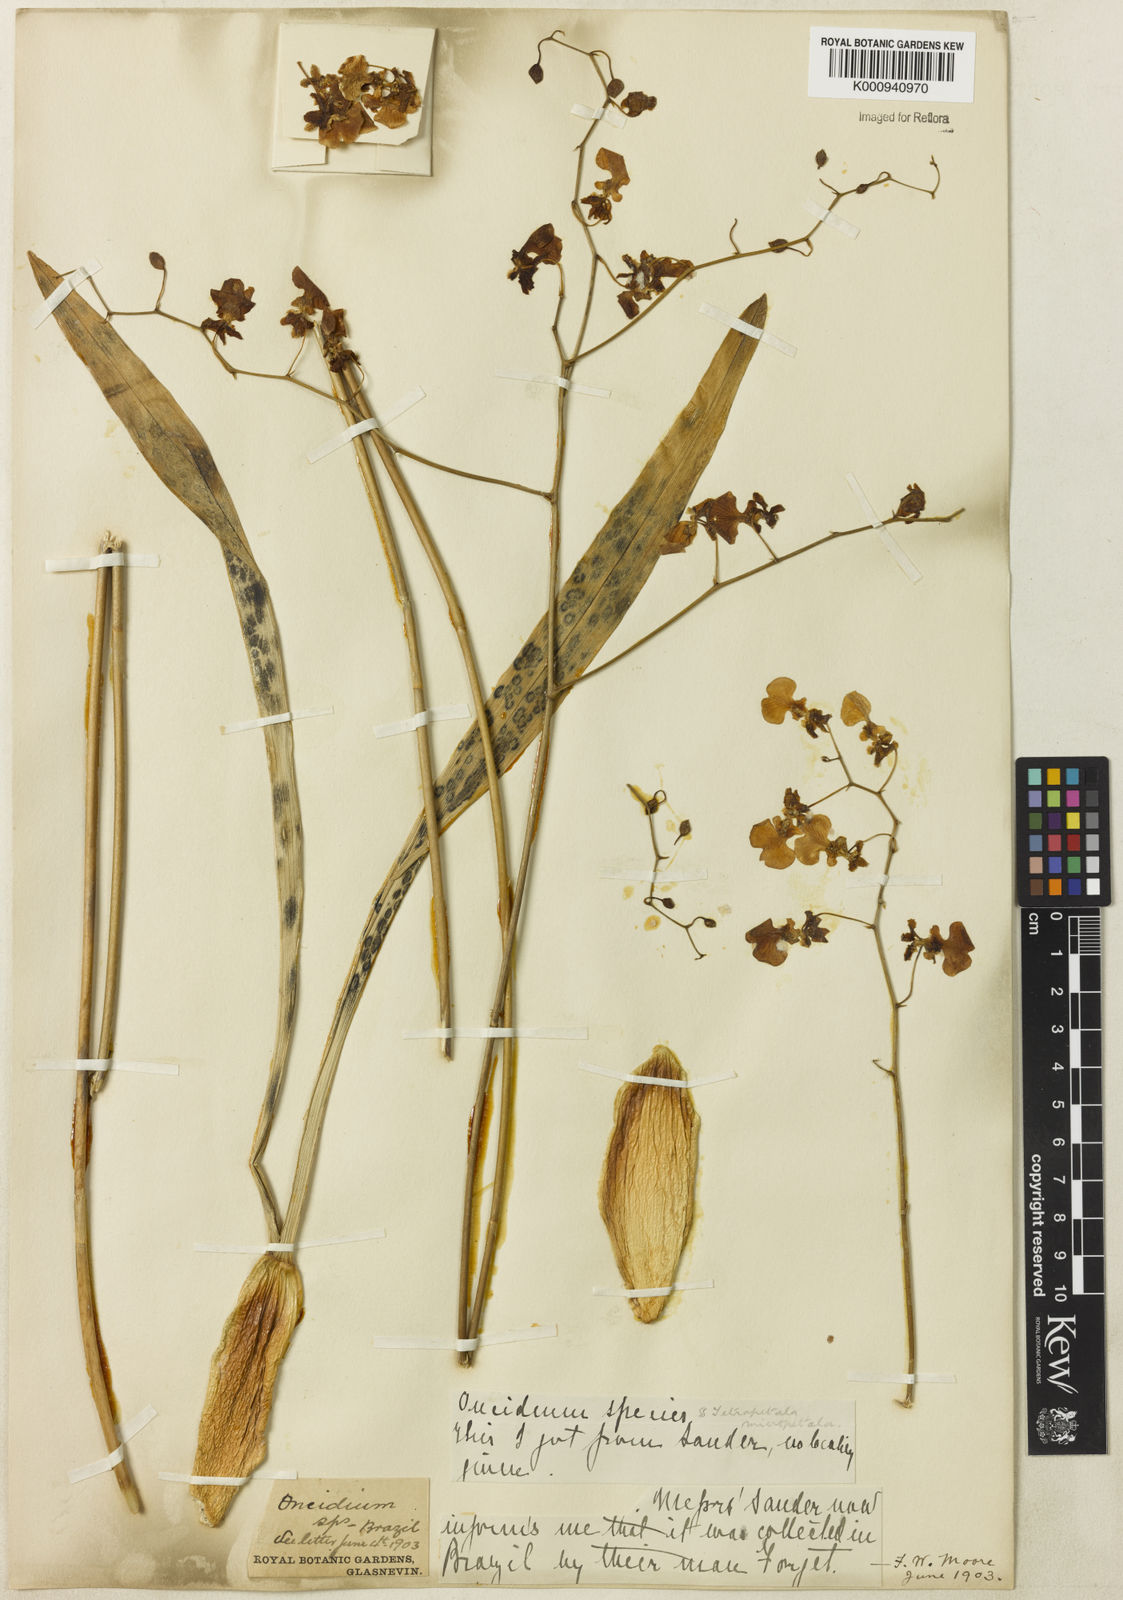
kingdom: Plantae
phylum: Tracheophyta
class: Liliopsida
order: Asparagales
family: Orchidaceae
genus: Oncidium
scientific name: Oncidium
